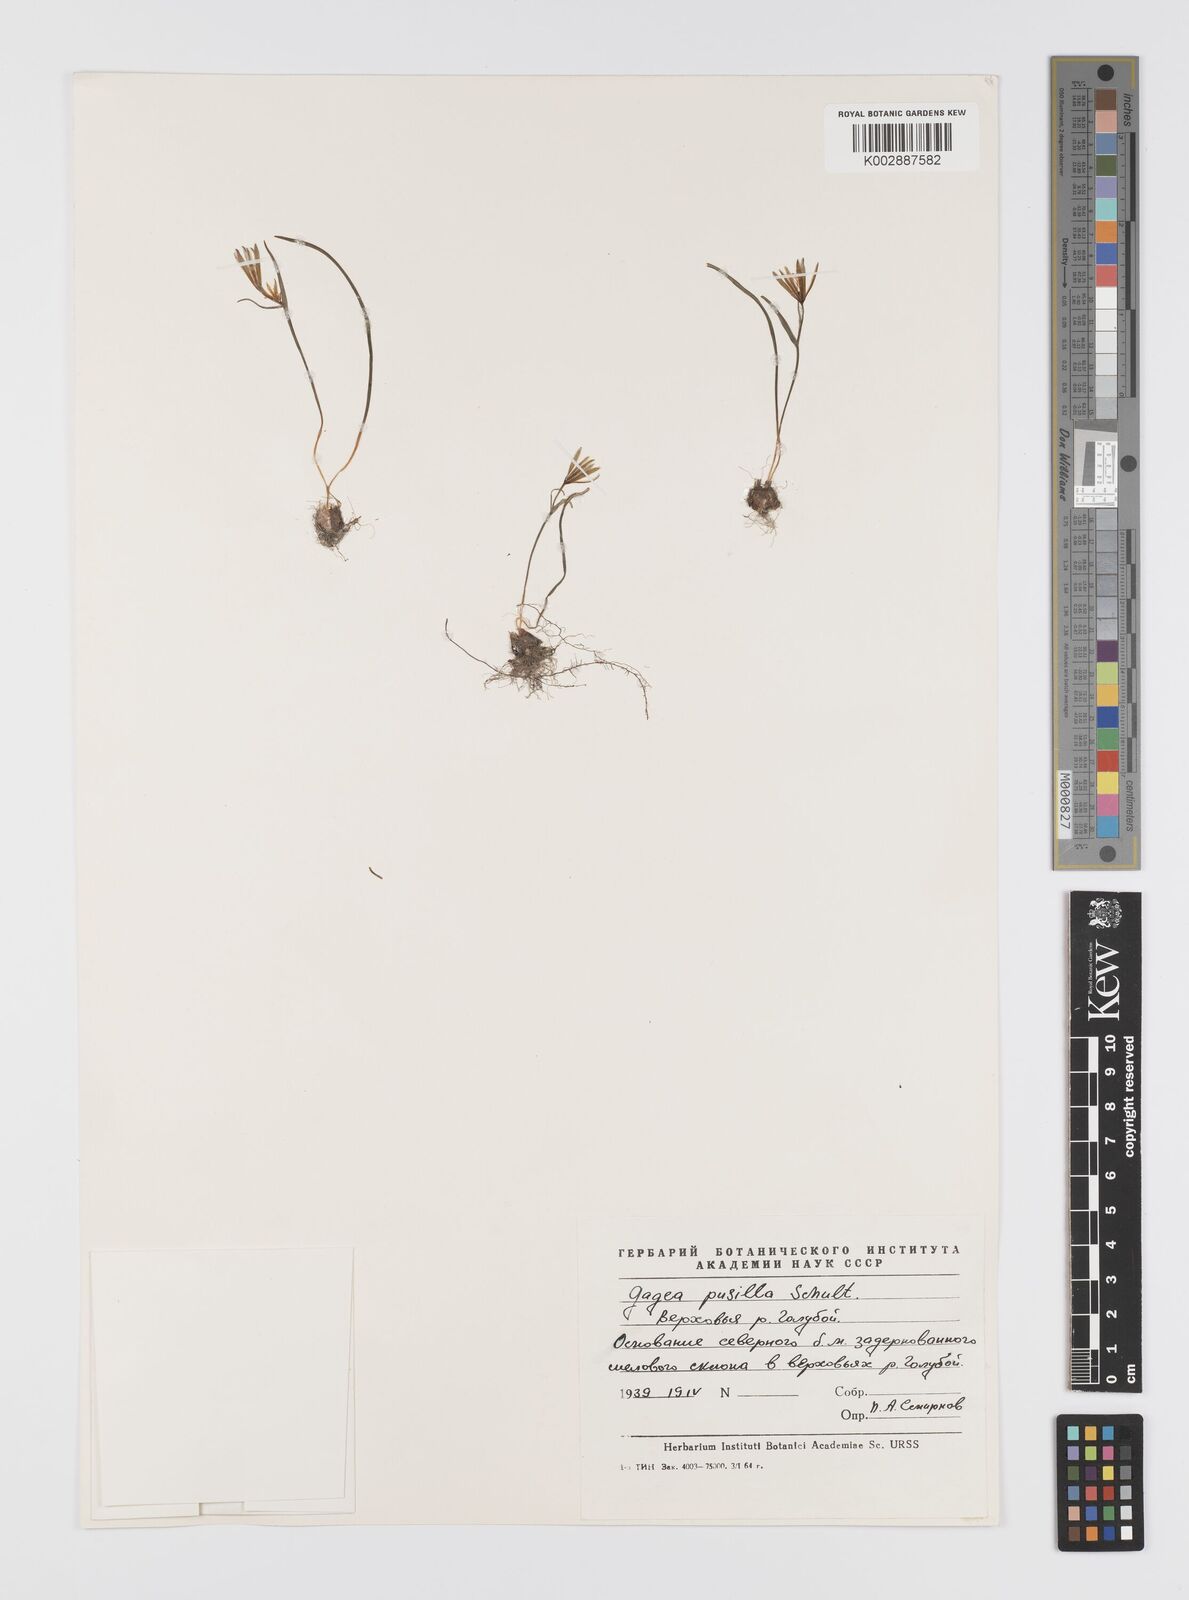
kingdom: Plantae
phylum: Tracheophyta
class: Liliopsida
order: Liliales
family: Liliaceae
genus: Gagea
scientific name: Gagea pusilla
